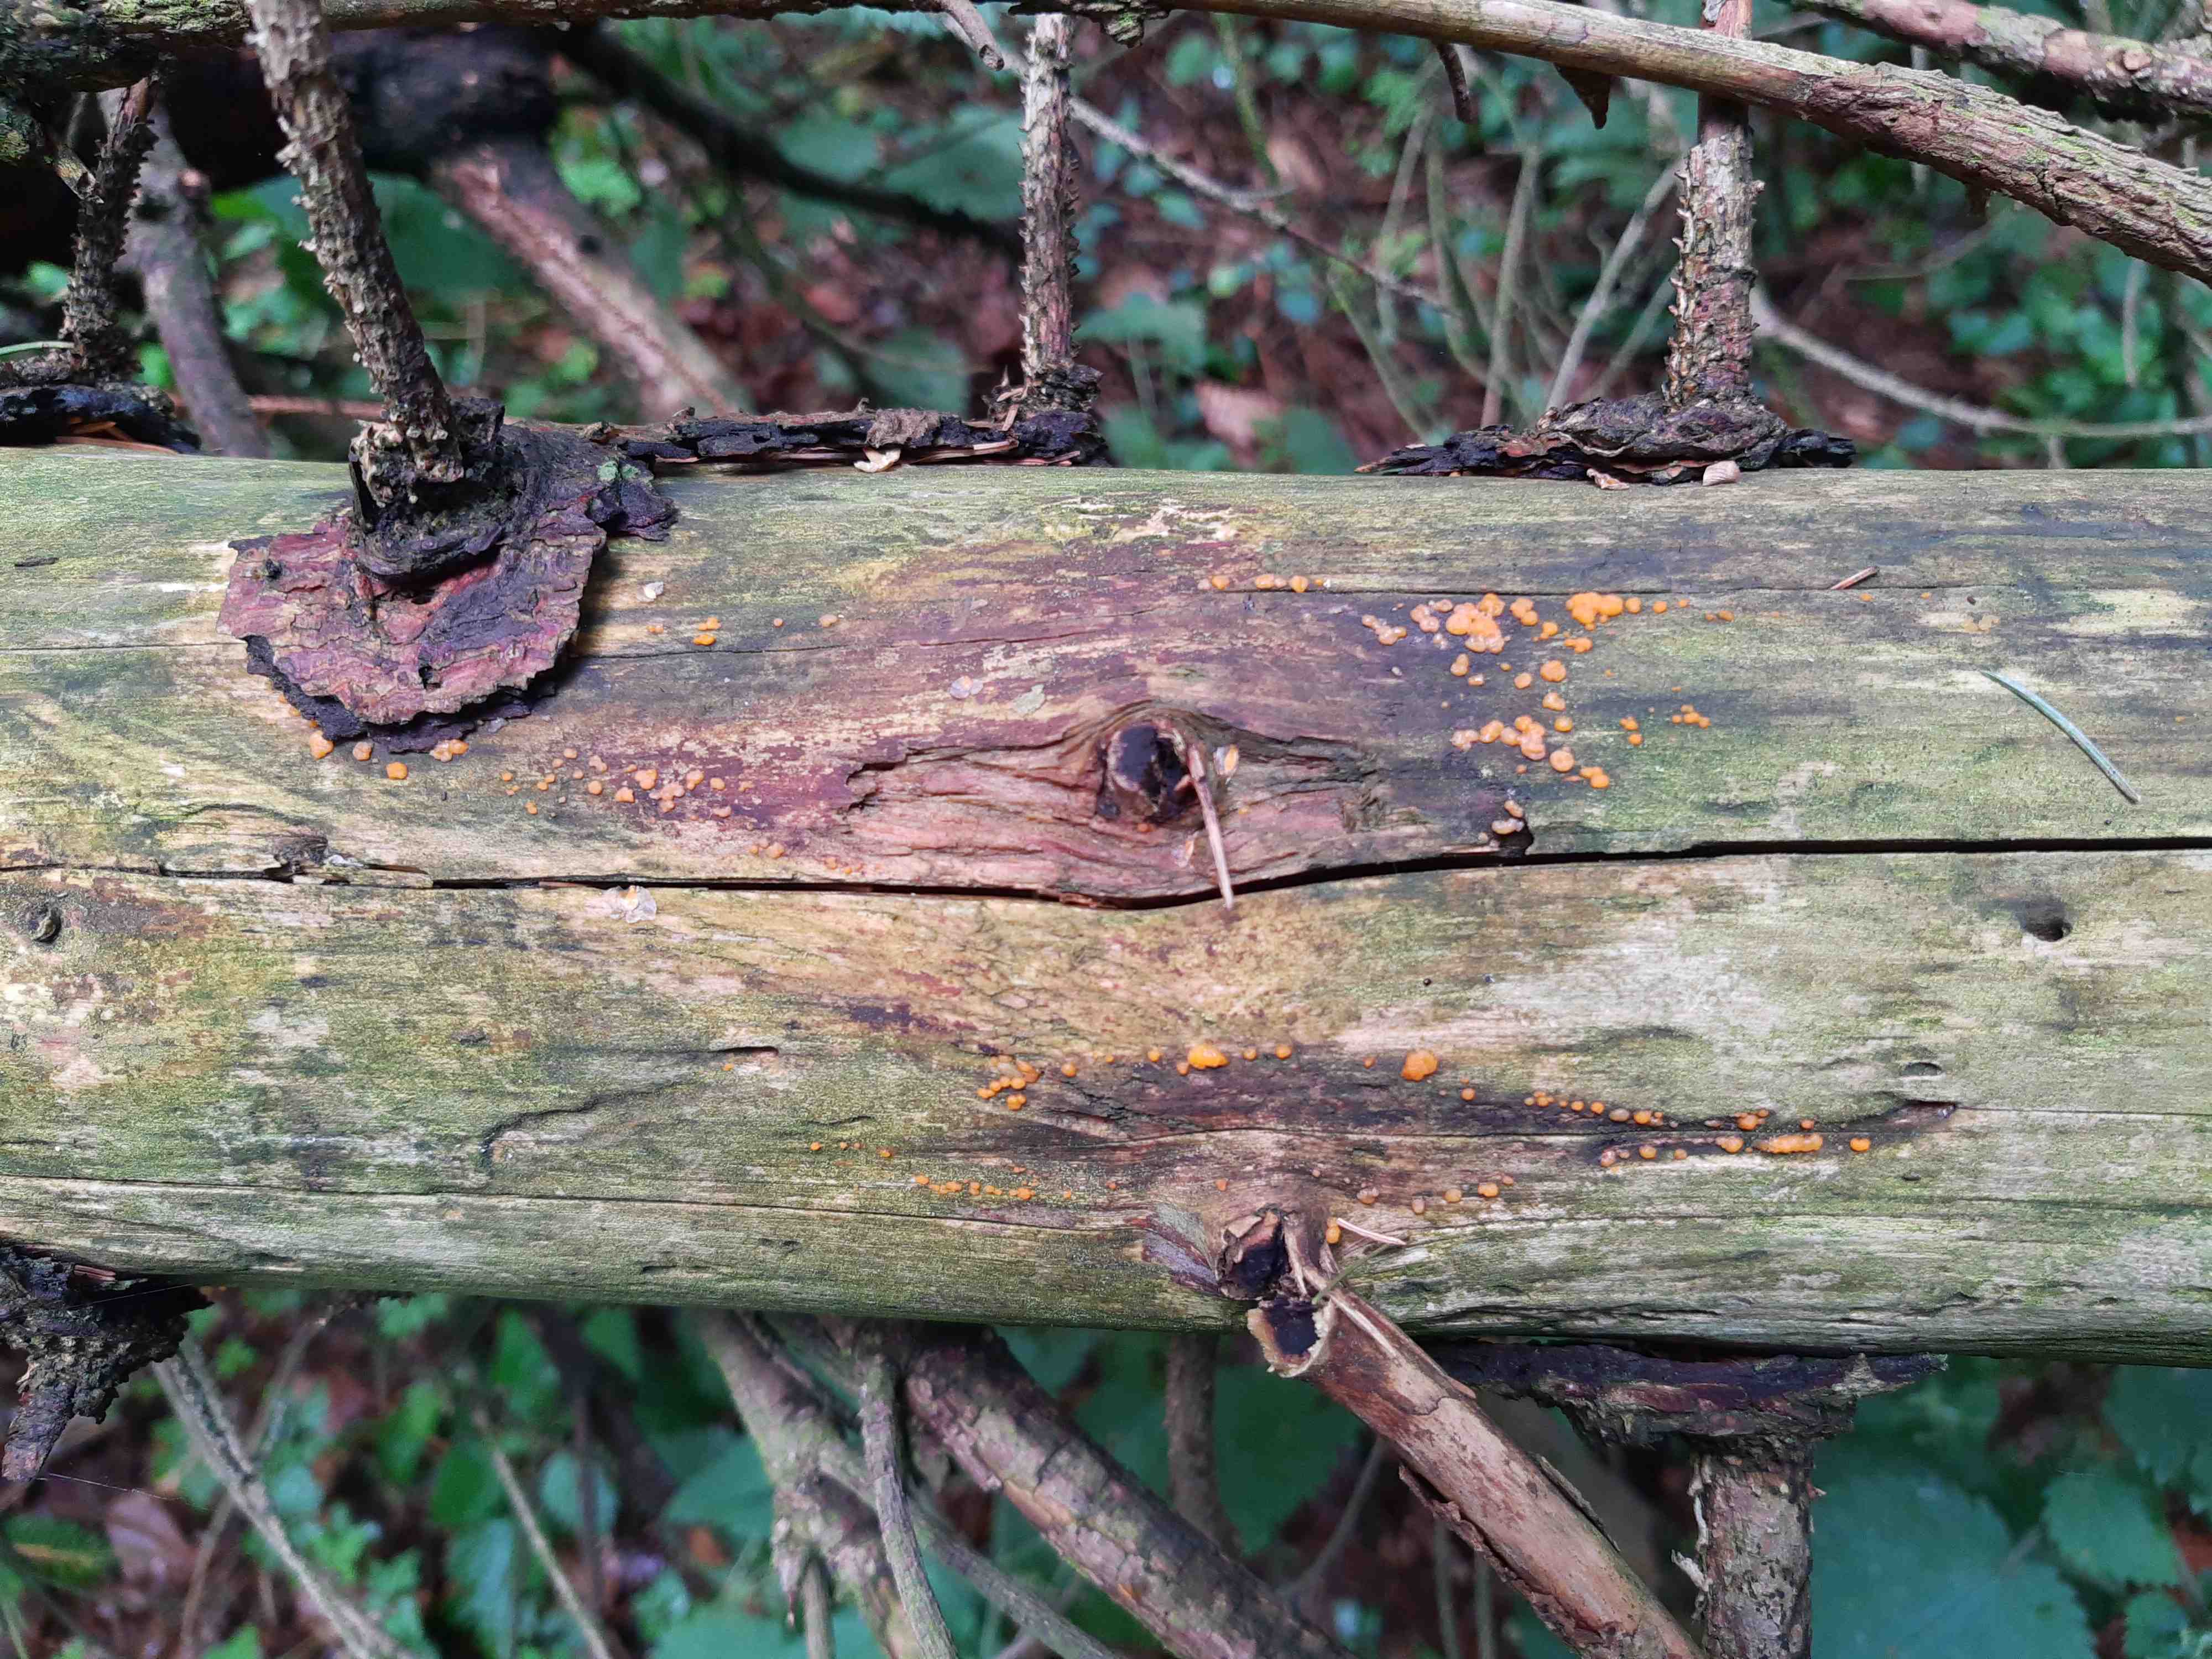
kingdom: Fungi
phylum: Basidiomycota
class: Dacrymycetes
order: Dacrymycetales
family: Dacrymycetaceae
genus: Dacrymyces
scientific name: Dacrymyces stillatus
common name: almindelig tåresvamp
